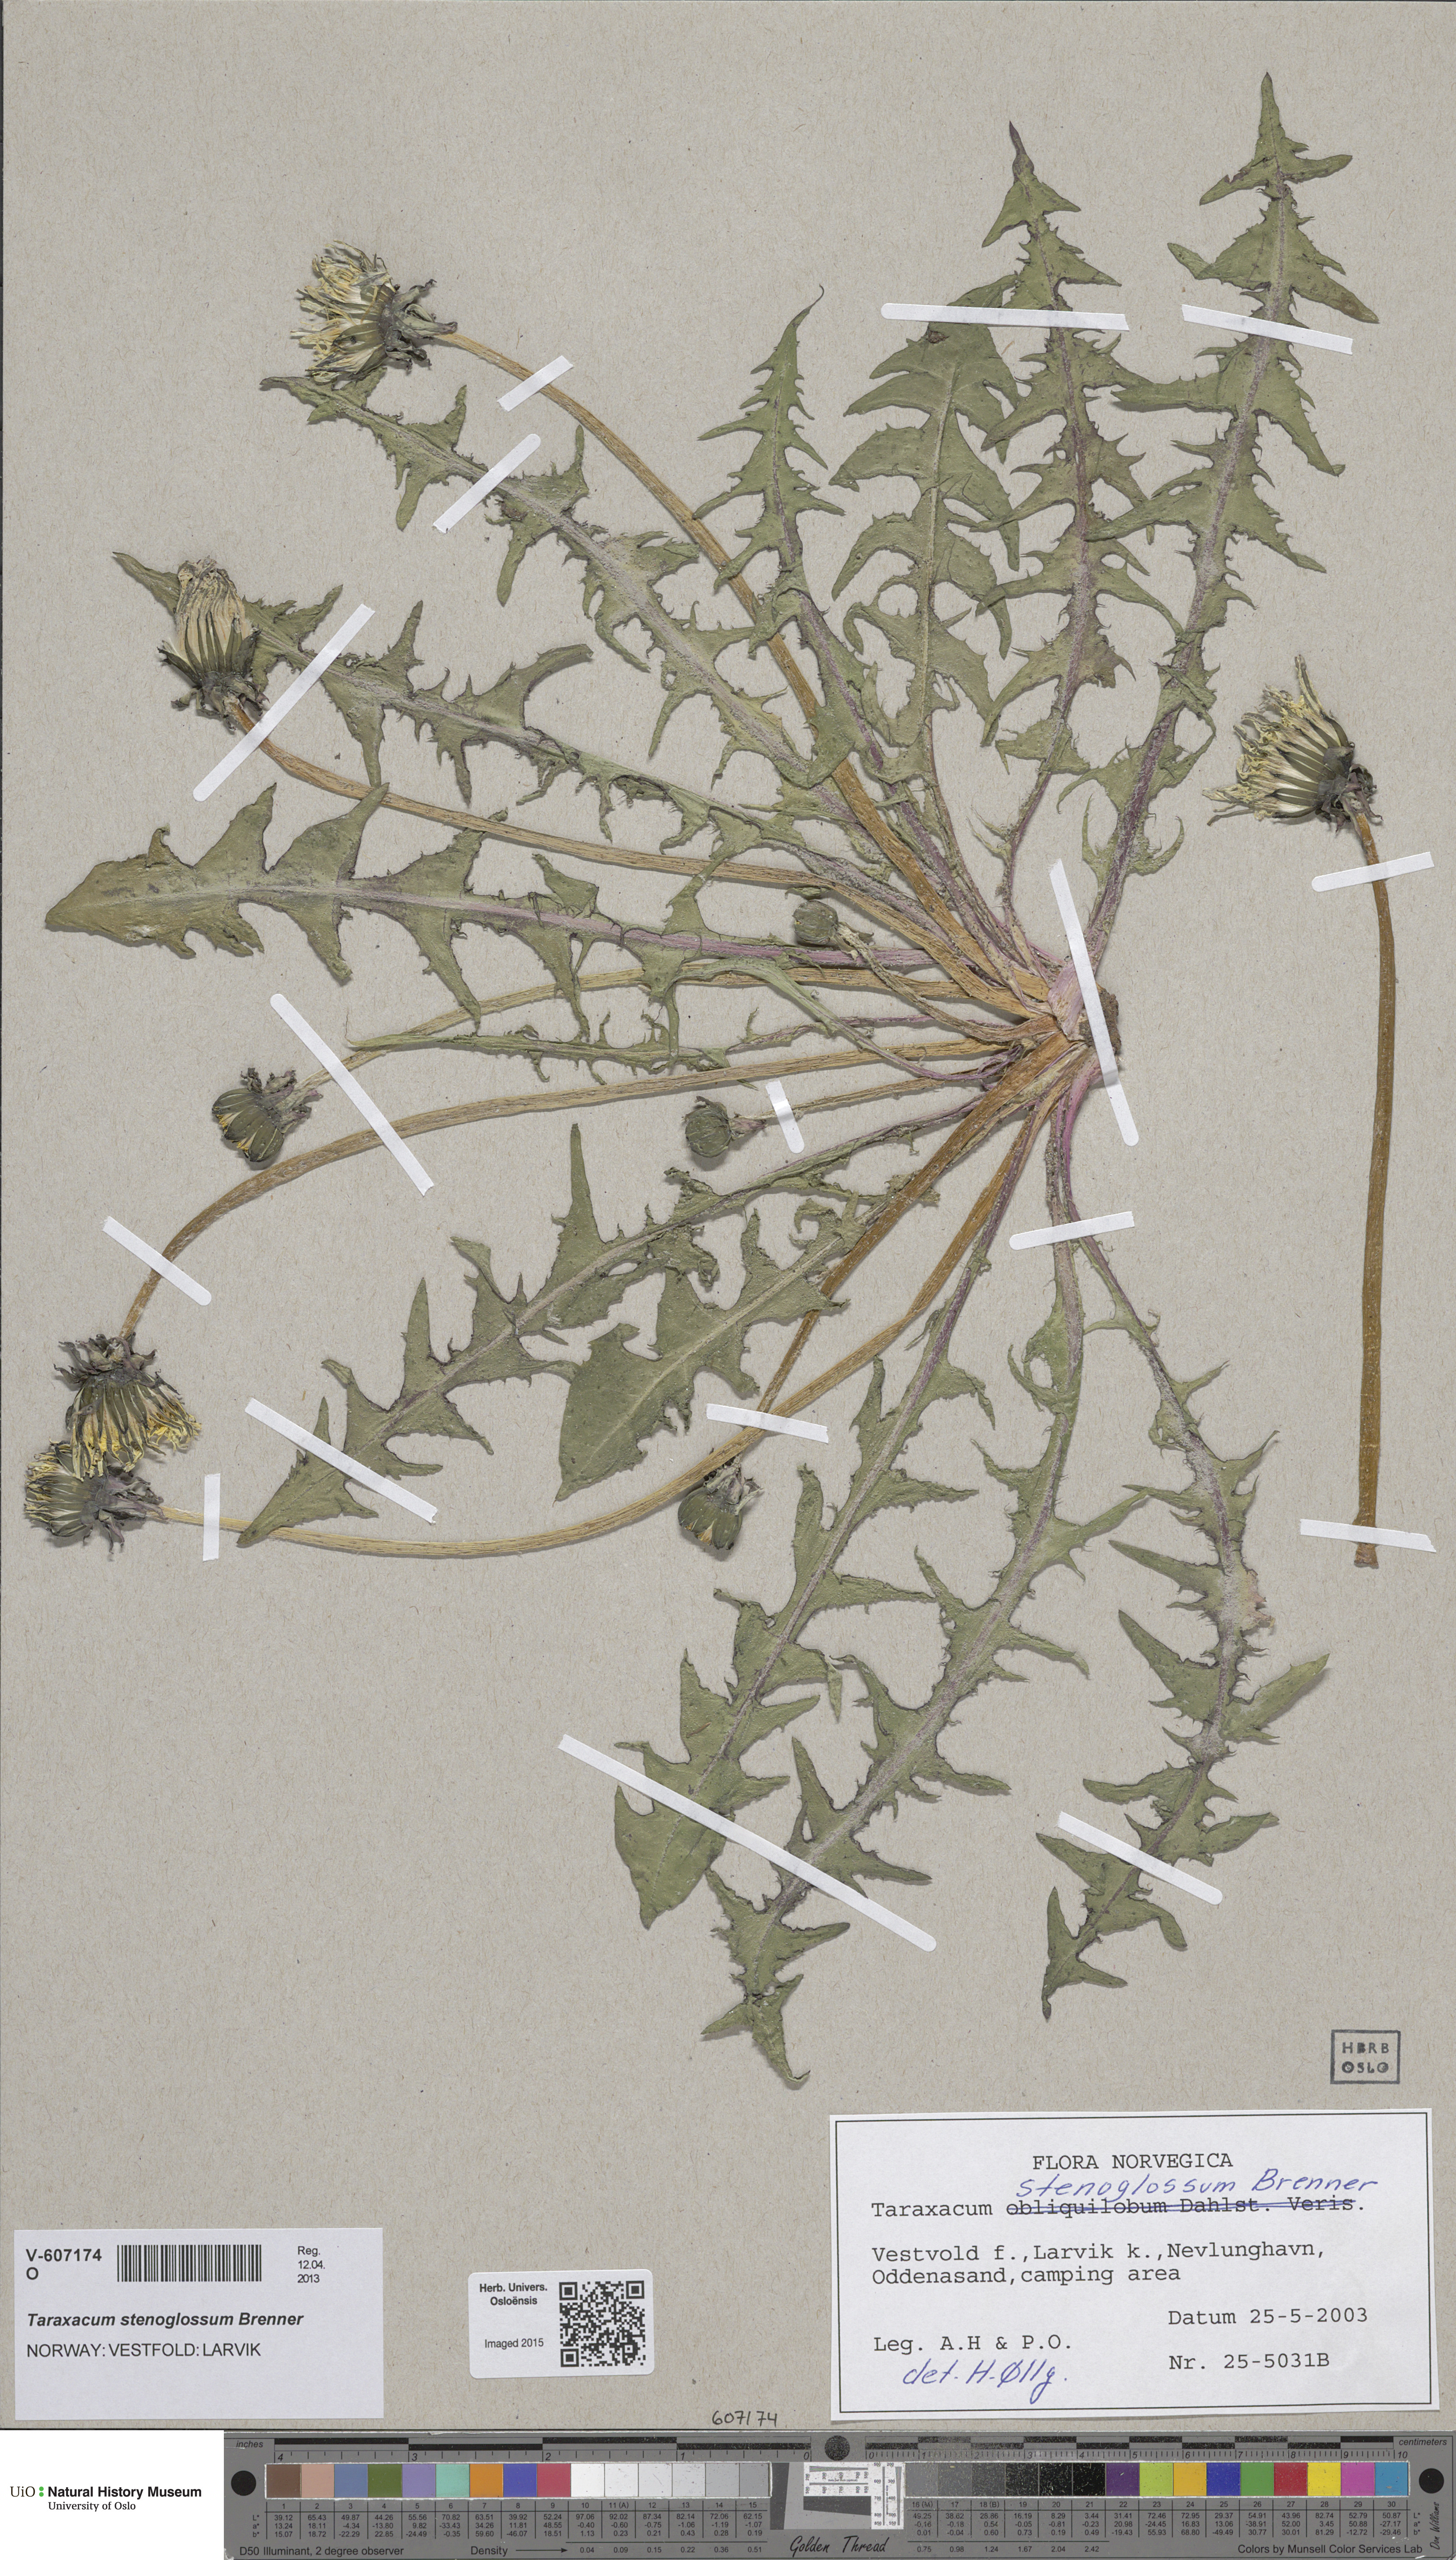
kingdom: Plantae
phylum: Tracheophyta
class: Magnoliopsida
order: Asterales
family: Asteraceae
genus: Taraxacum
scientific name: Taraxacum stenoglossum
